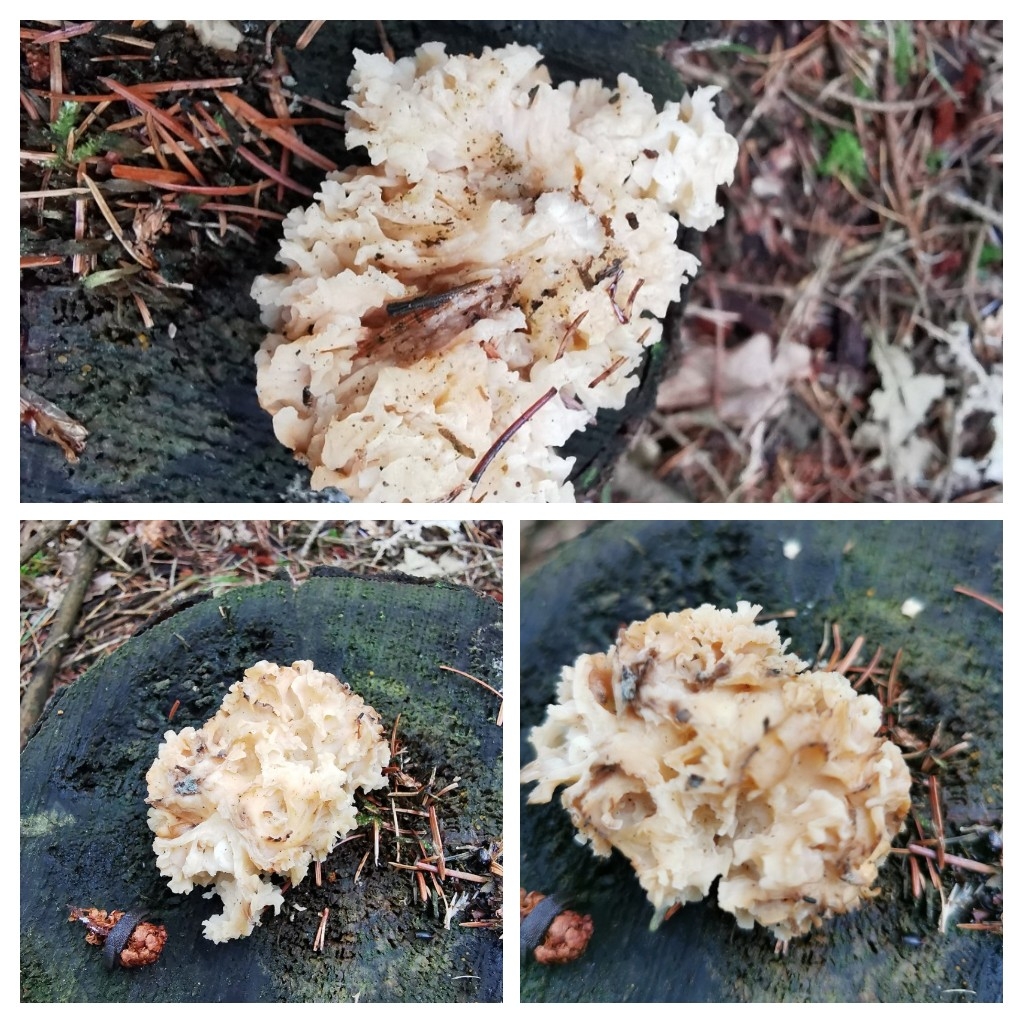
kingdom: Fungi
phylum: Basidiomycota
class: Agaricomycetes
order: Polyporales
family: Sparassidaceae
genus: Sparassis
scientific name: Sparassis crispa
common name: kruset blomkålssvamp
